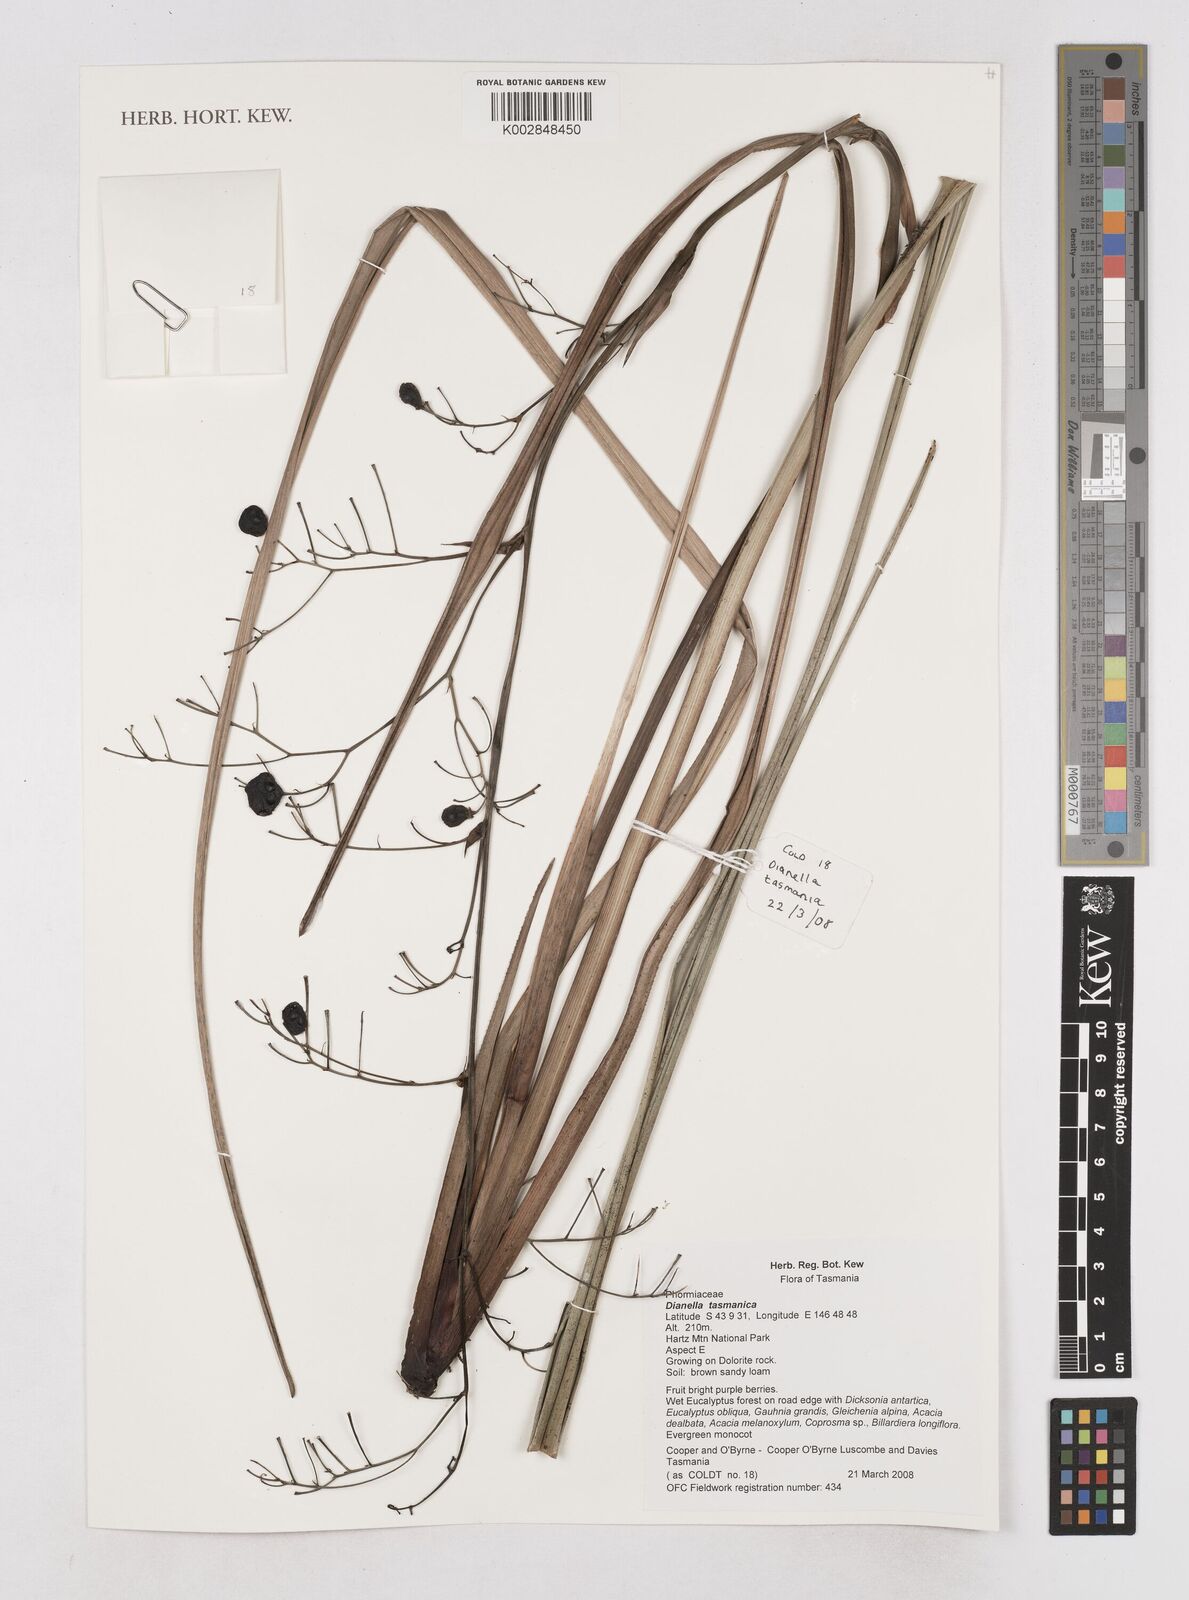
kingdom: Plantae
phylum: Tracheophyta
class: Liliopsida
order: Asparagales
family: Asphodelaceae
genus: Dianella
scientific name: Dianella tasmanica
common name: Tasman flax-lily
